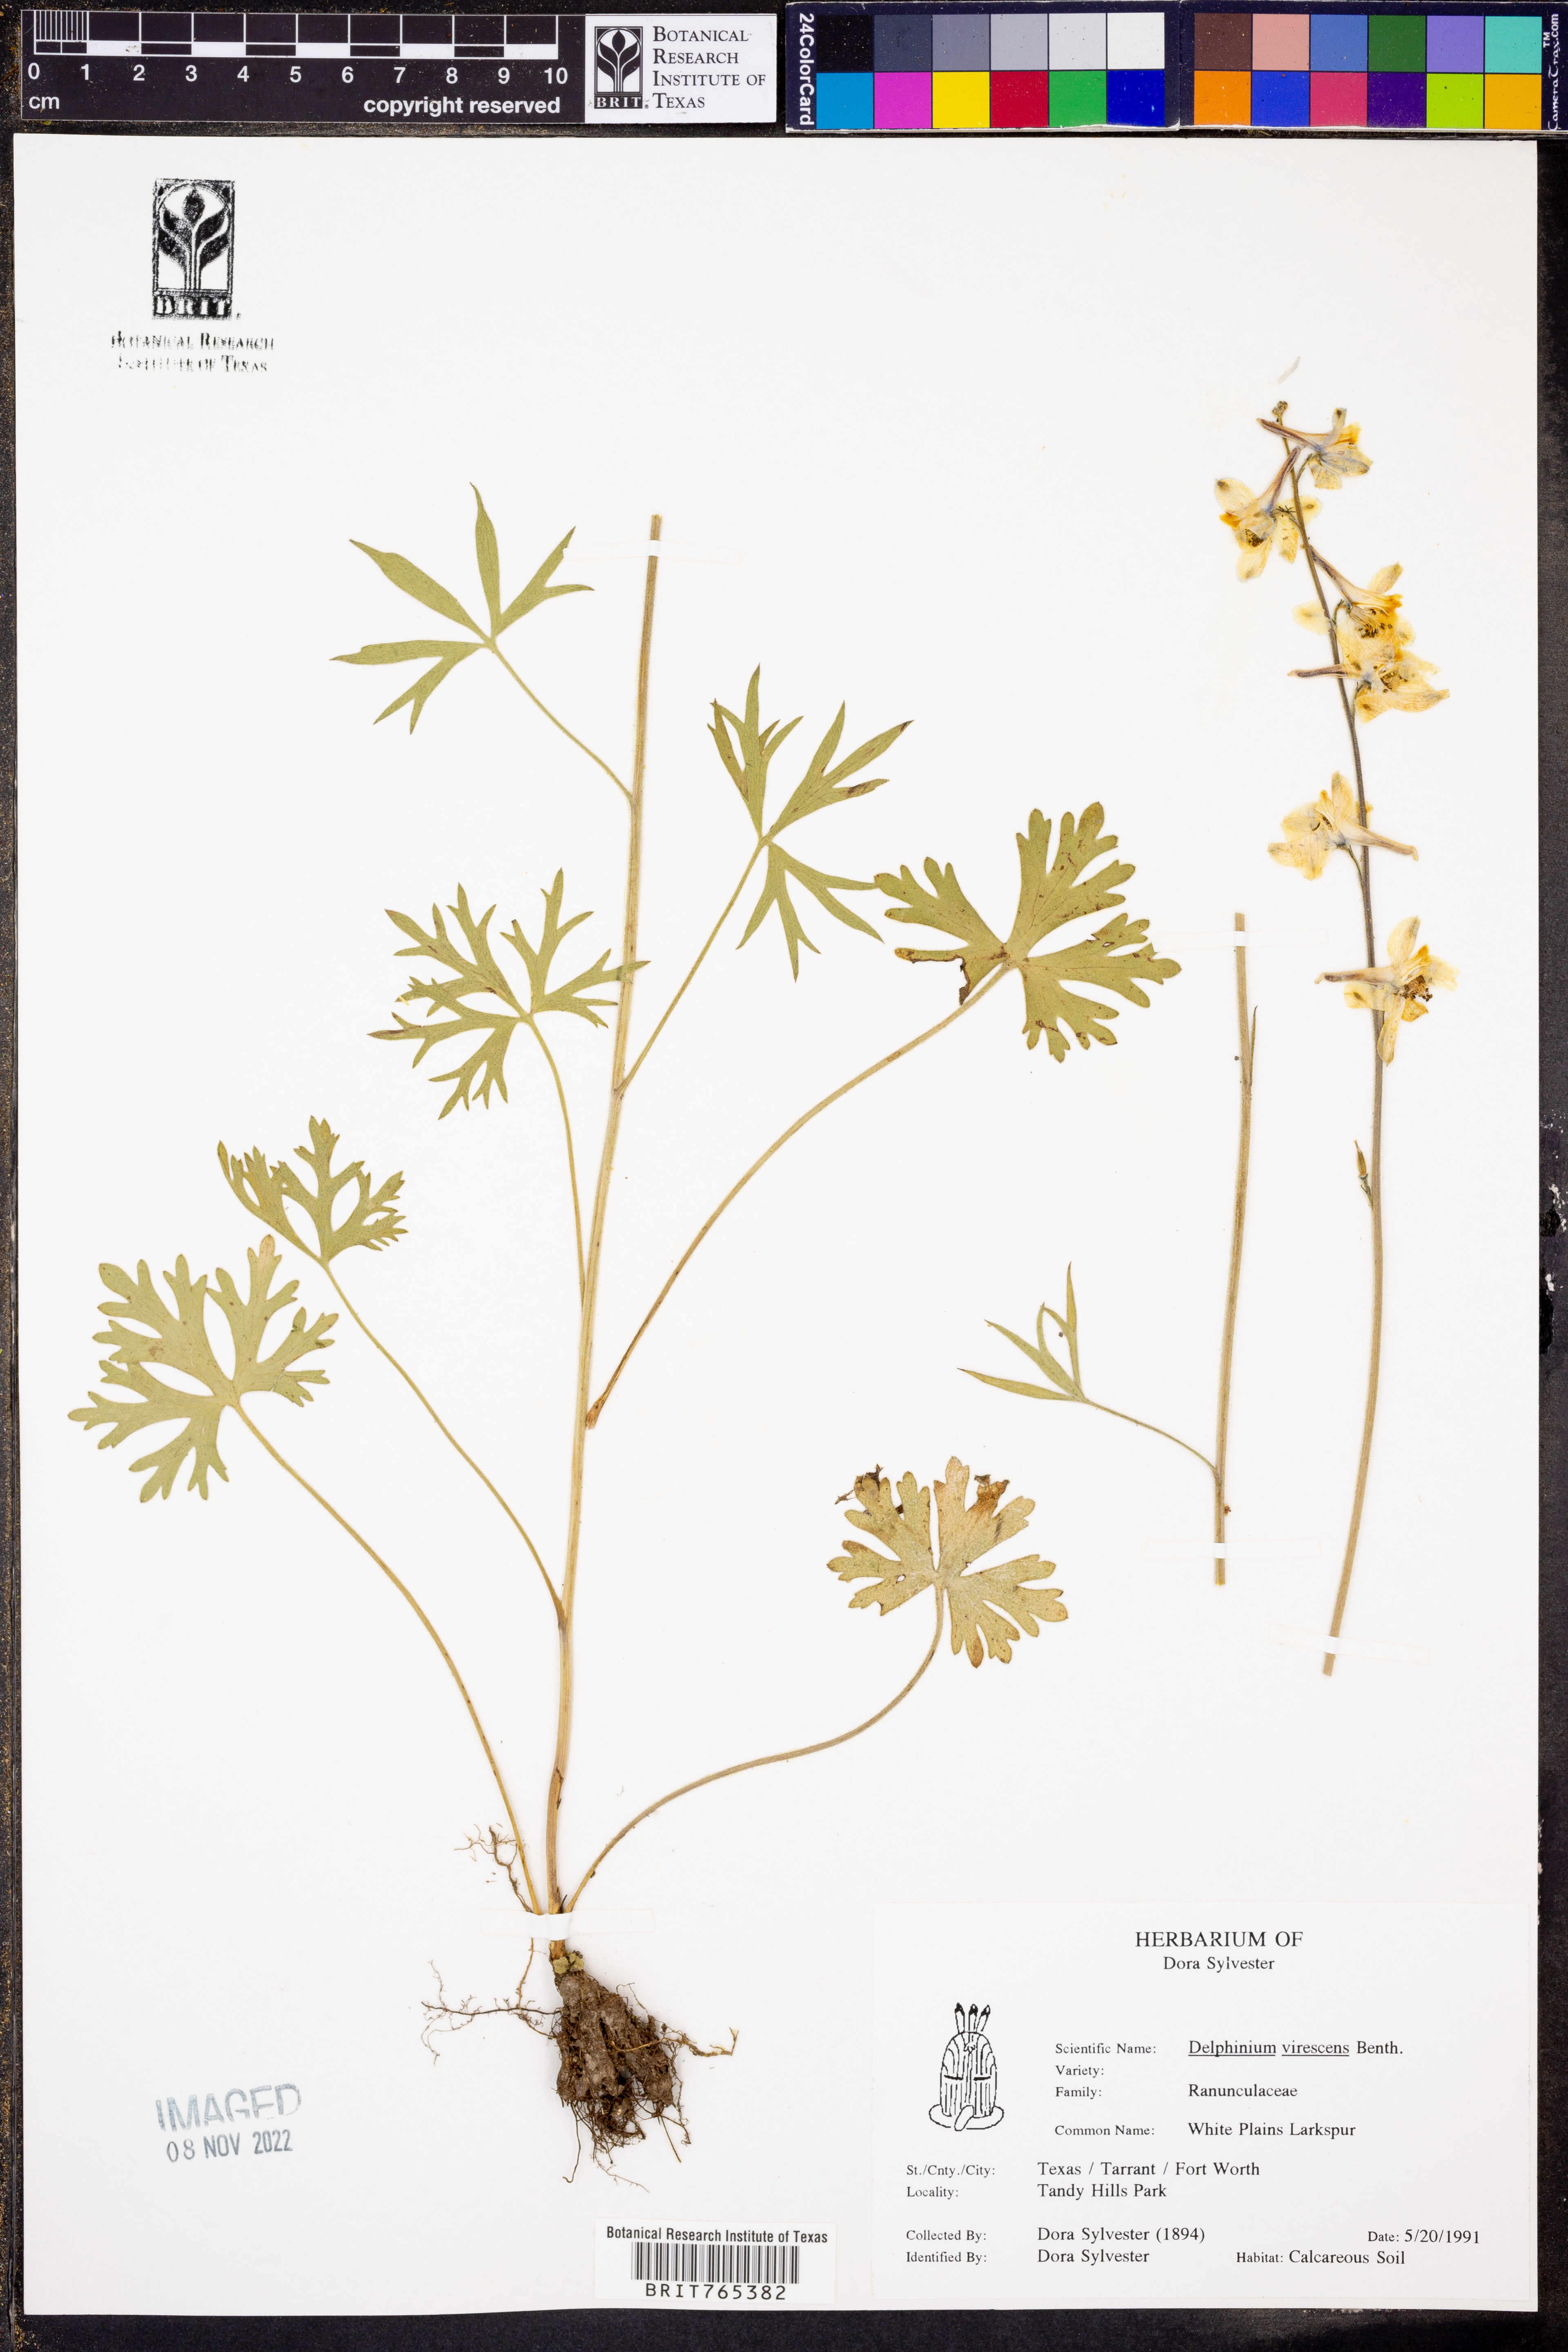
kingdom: Plantae
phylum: Tracheophyta
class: Magnoliopsida
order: Ranunculales
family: Ranunculaceae
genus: Delphinium
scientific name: Delphinium carolinianum
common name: Carolina larkspur
